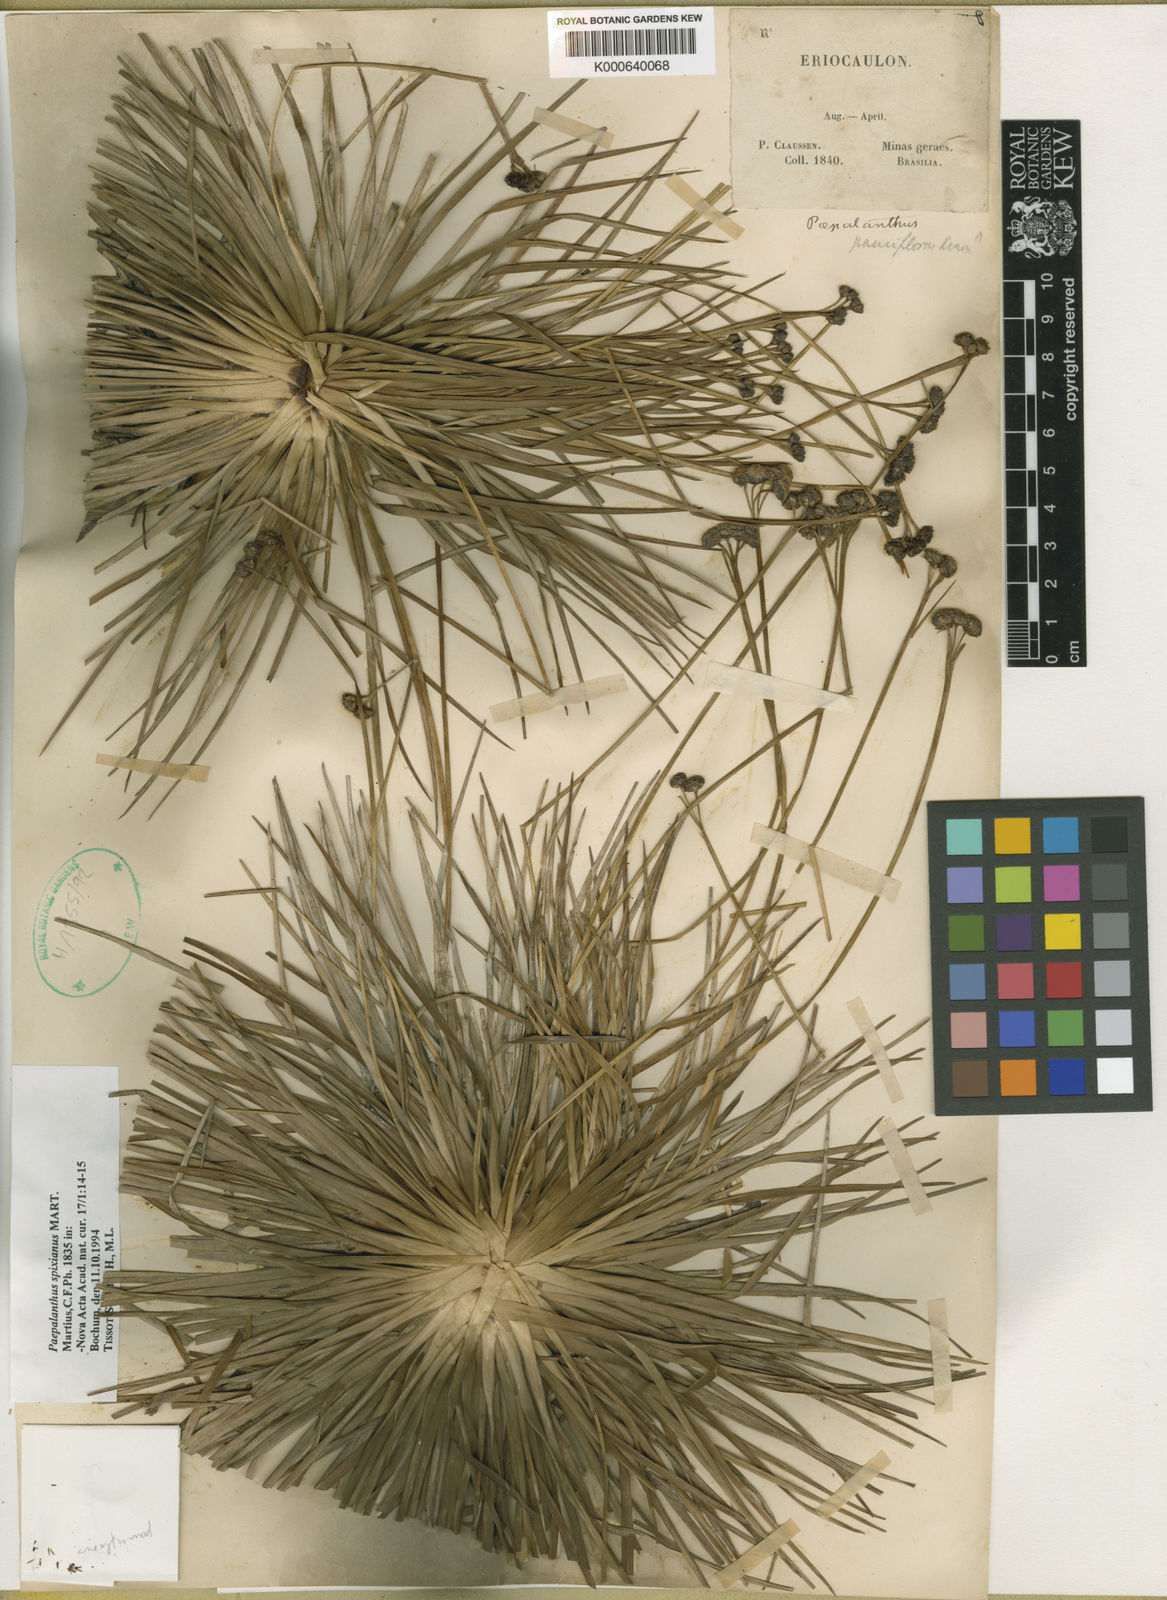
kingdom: Plantae
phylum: Tracheophyta
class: Liliopsida
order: Poales
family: Eriocaulaceae
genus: Paepalanthus
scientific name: Paepalanthus spixianus
